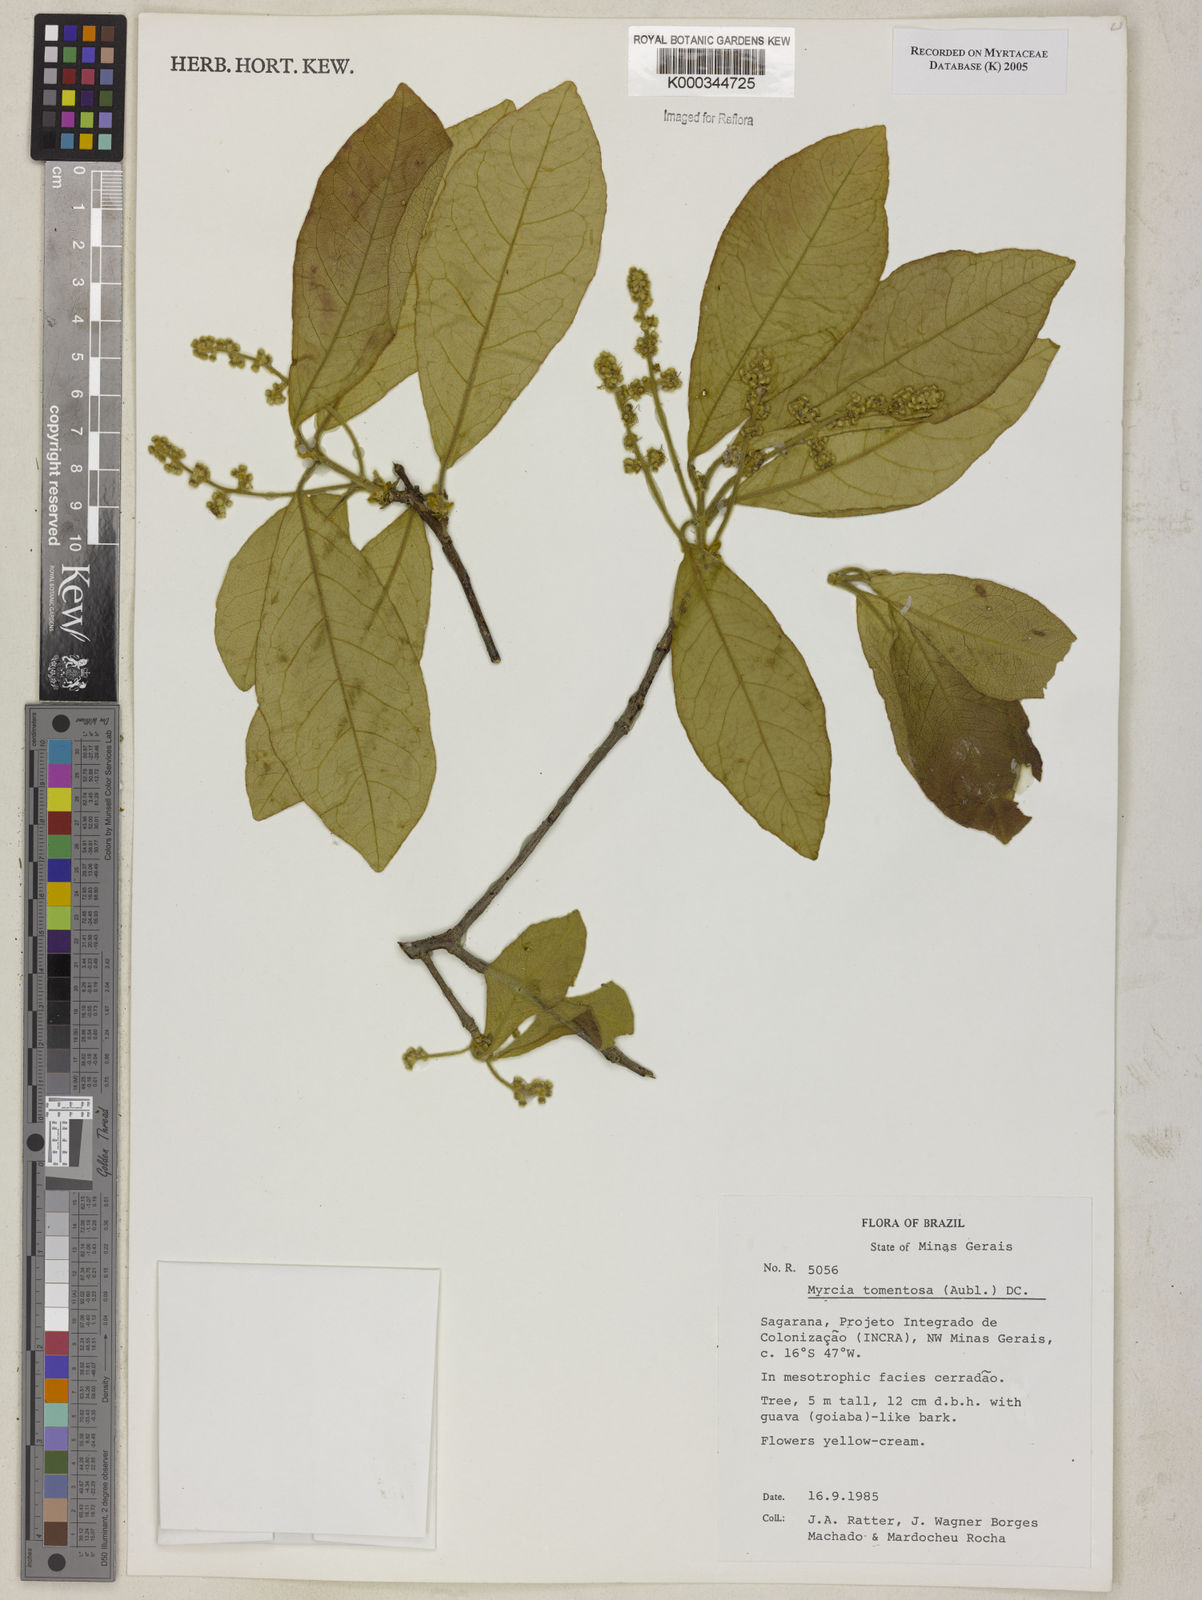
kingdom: Plantae
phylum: Tracheophyta
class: Magnoliopsida
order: Myrtales
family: Myrtaceae
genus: Myrcia
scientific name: Myrcia tomentosa
